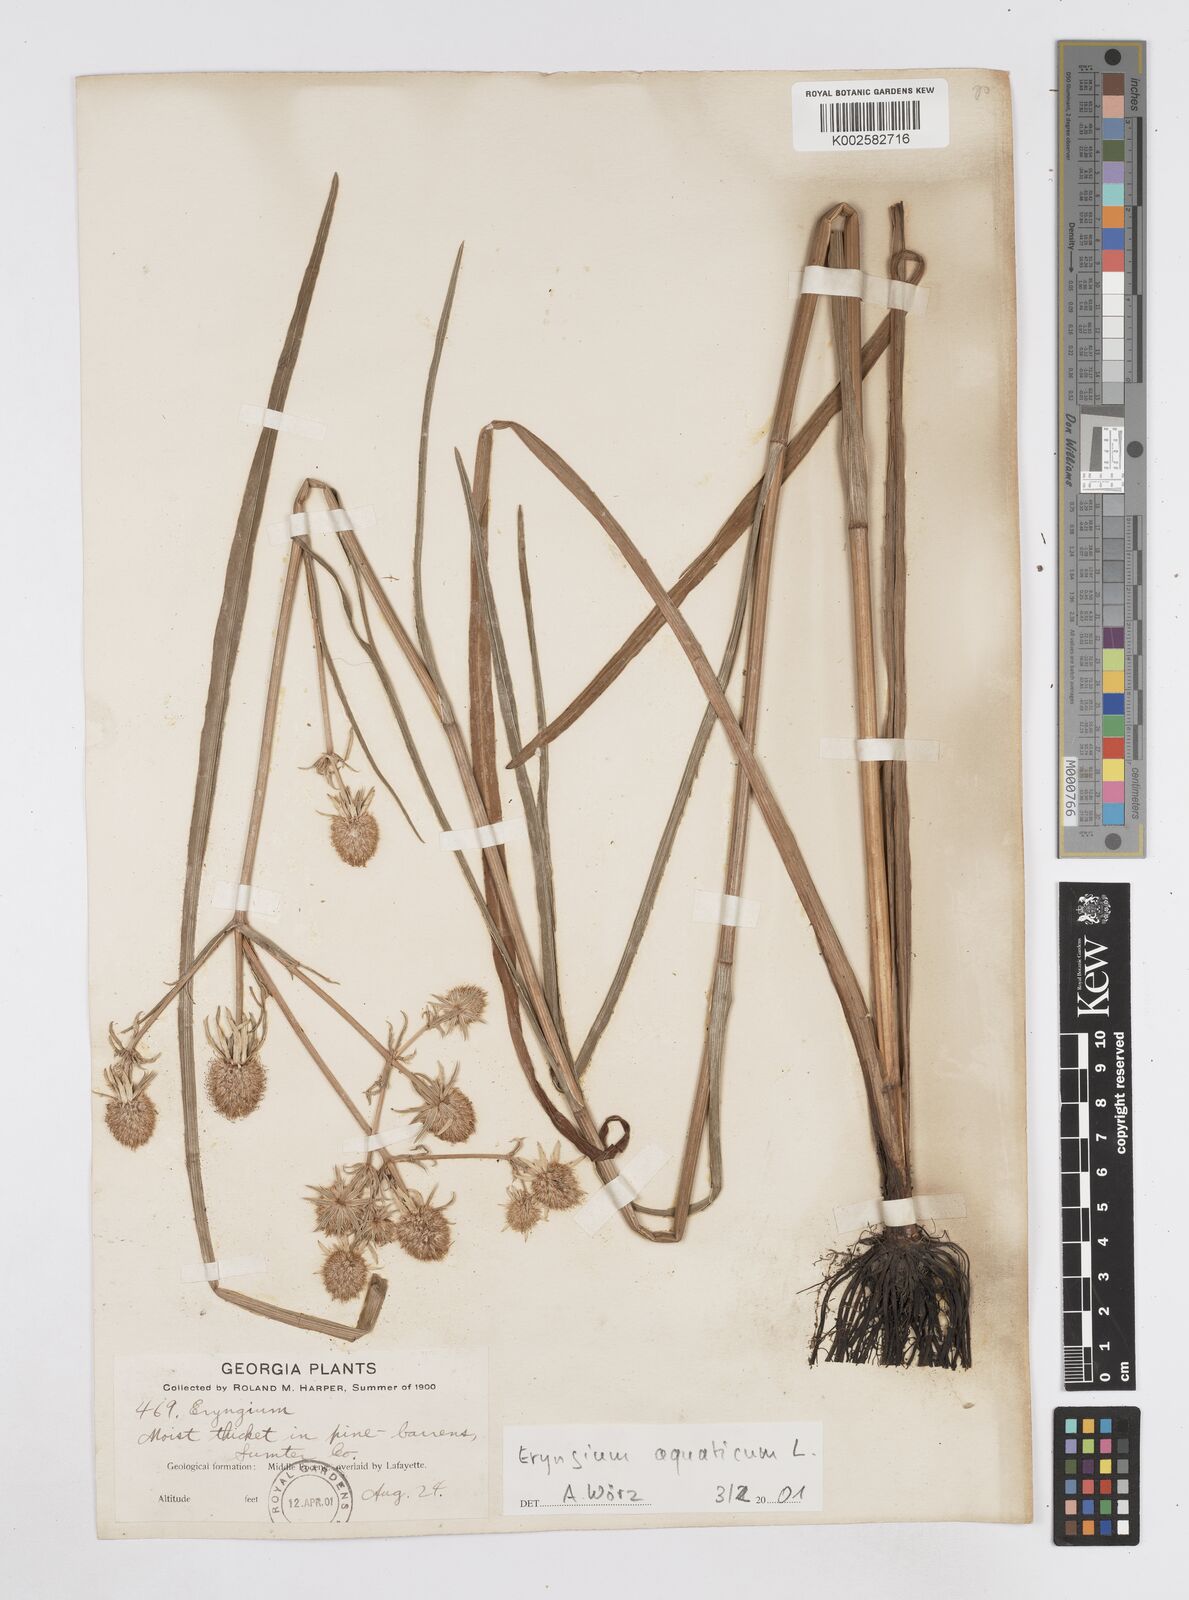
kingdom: Plantae
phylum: Tracheophyta
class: Magnoliopsida
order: Apiales
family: Apiaceae
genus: Eryngium
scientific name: Eryngium aquaticum
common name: Water eryngo
